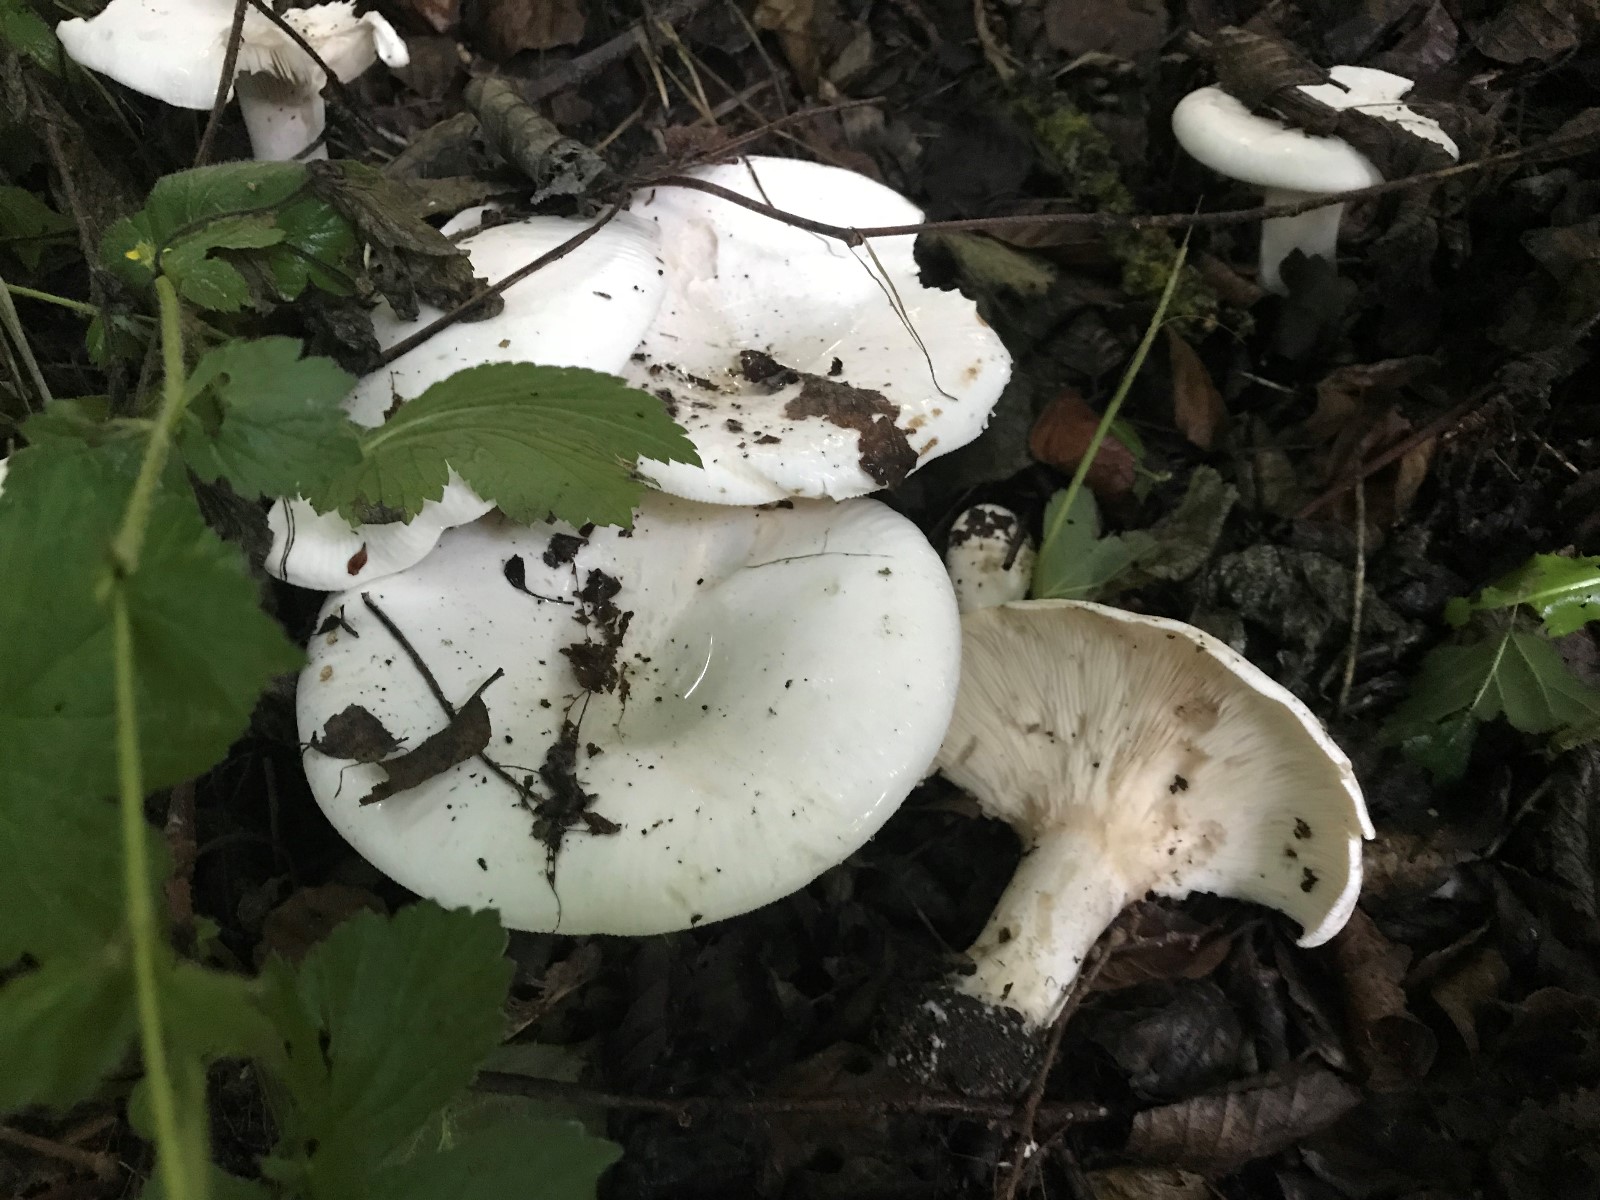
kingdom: Fungi
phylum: Basidiomycota
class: Agaricomycetes
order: Agaricales
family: Tricholomataceae
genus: Aspropaxillus
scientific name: Aspropaxillus giganteus
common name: kæmpe-tragtridderhat
